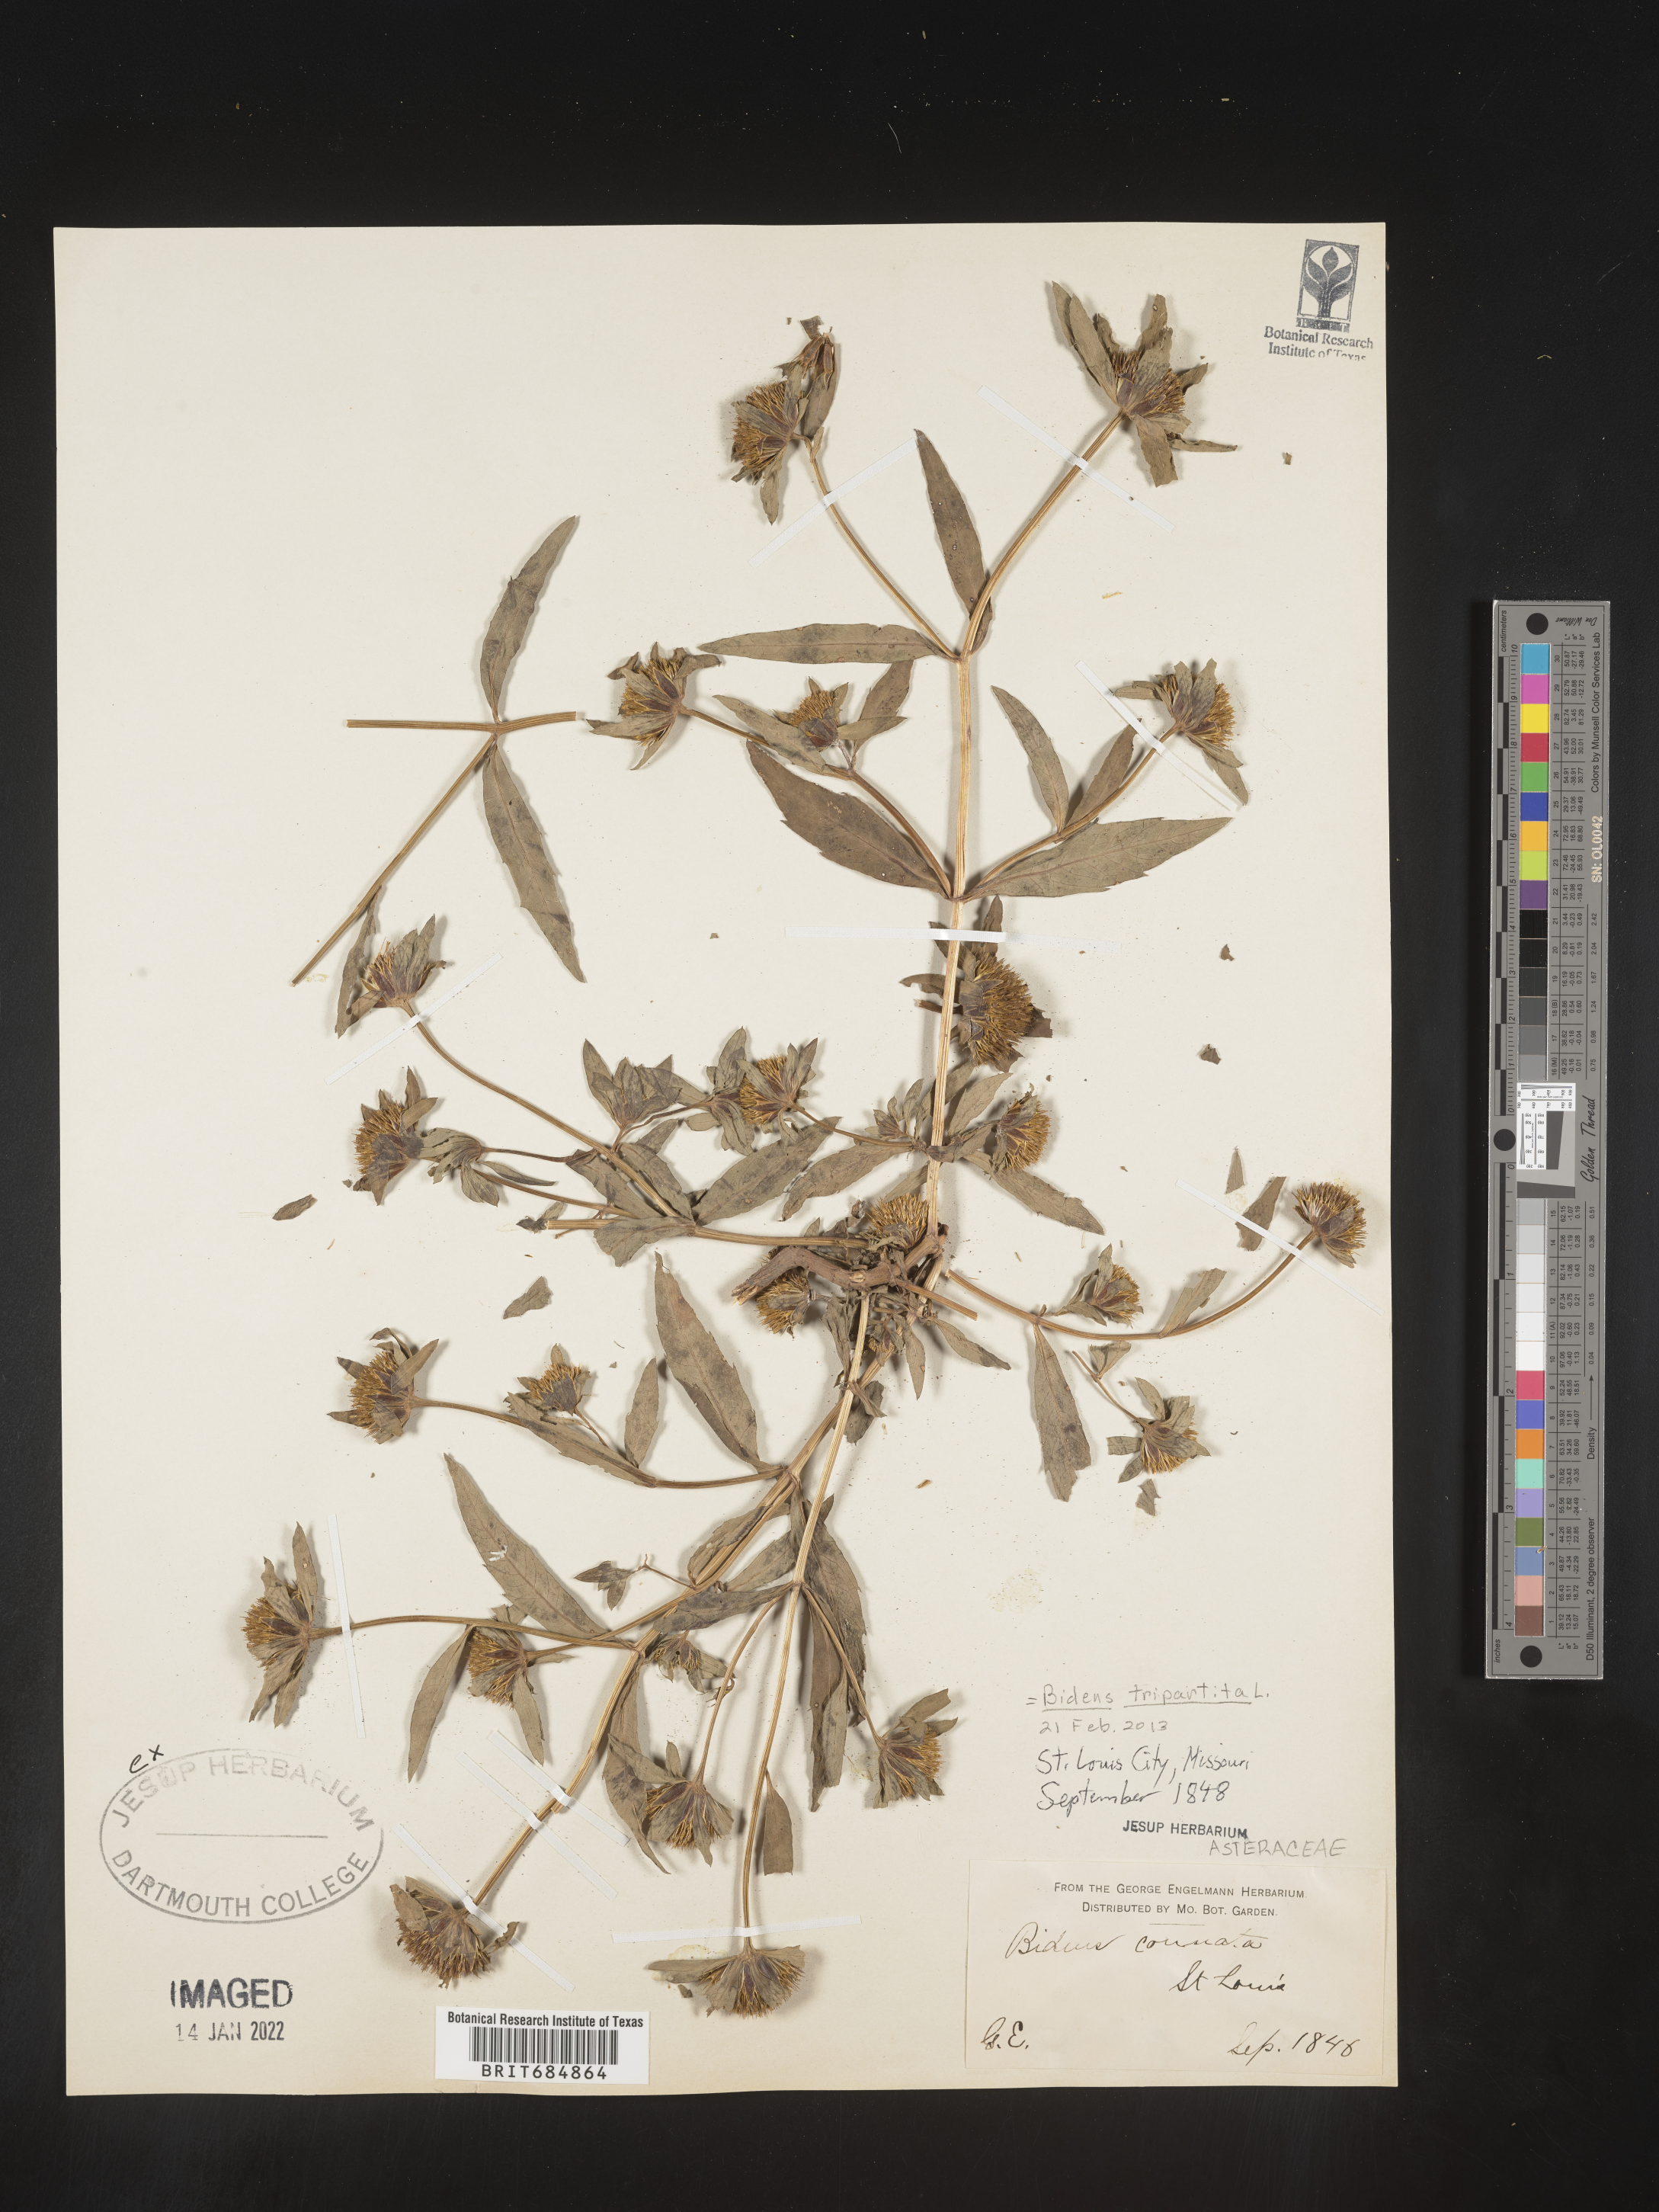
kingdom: Plantae
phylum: Tracheophyta
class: Magnoliopsida
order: Asterales
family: Asteraceae
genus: Bidens
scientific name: Bidens tripartita
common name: Trifid bur-marigold
